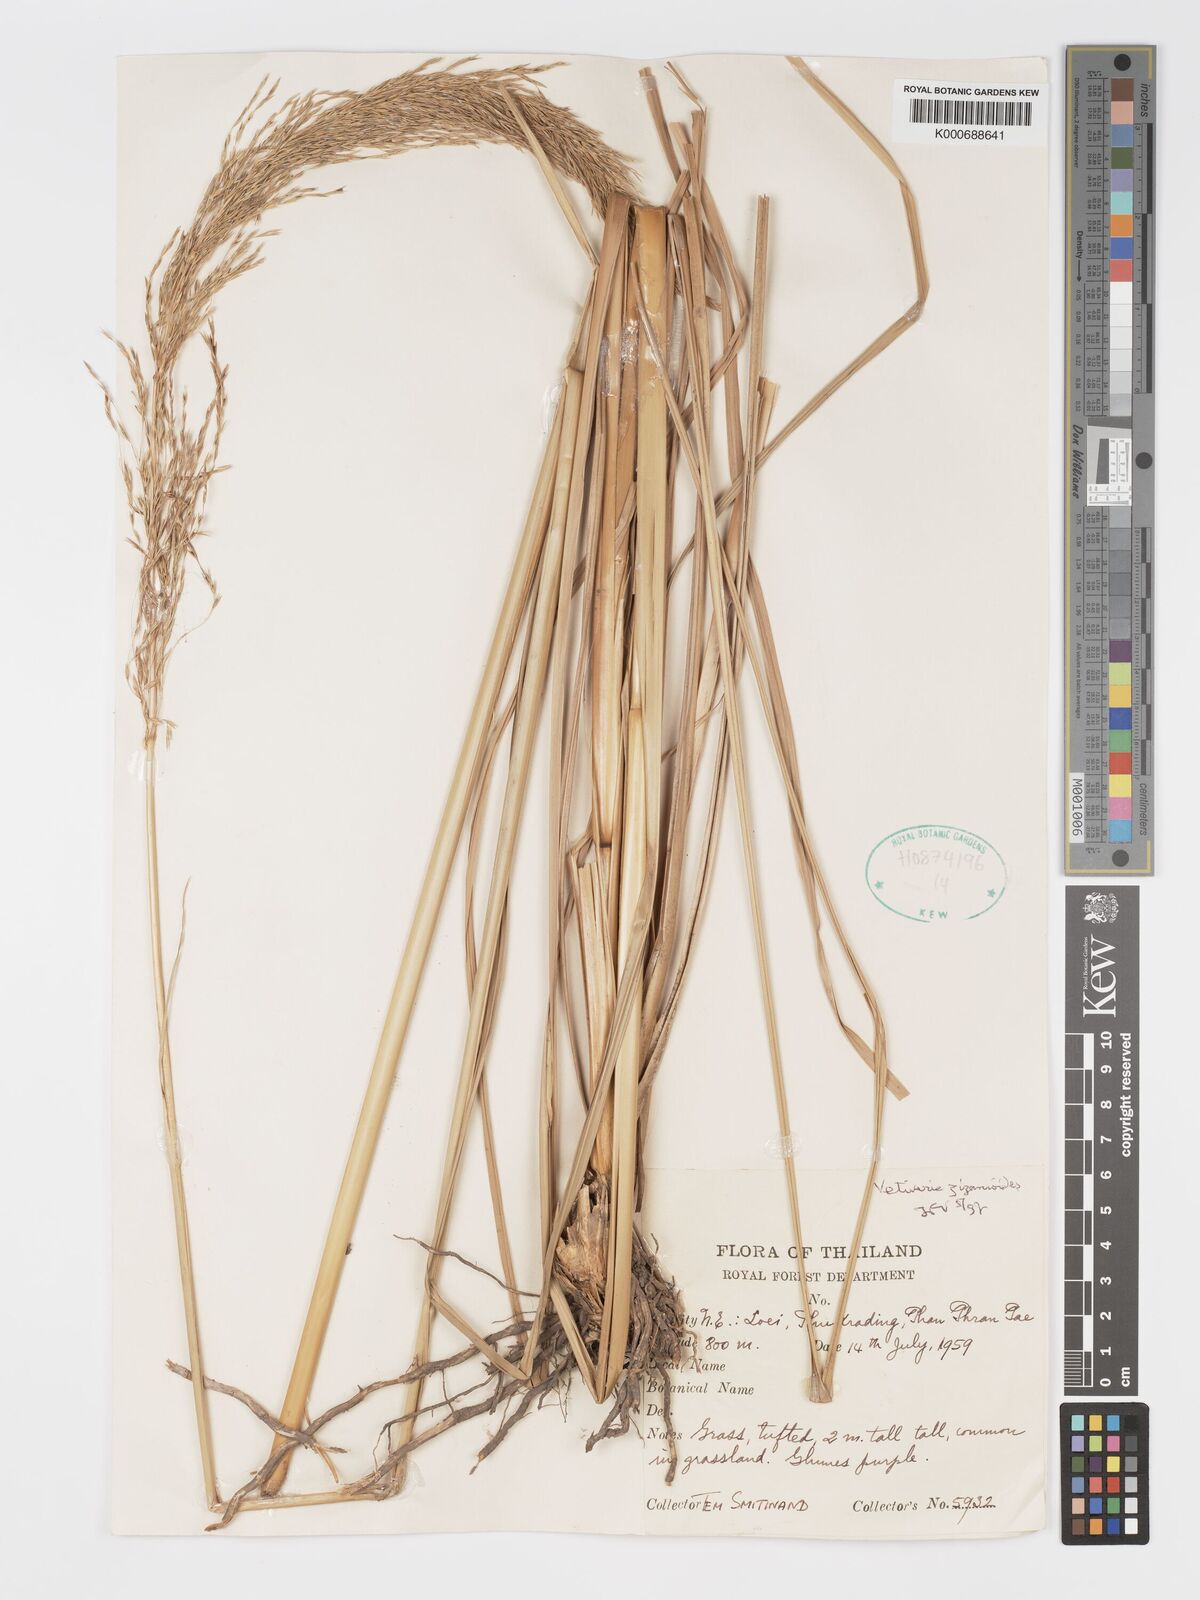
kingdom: Plantae
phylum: Tracheophyta
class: Liliopsida
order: Poales
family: Poaceae
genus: Chrysopogon
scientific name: Chrysopogon zizanioides
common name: False beardgrass
